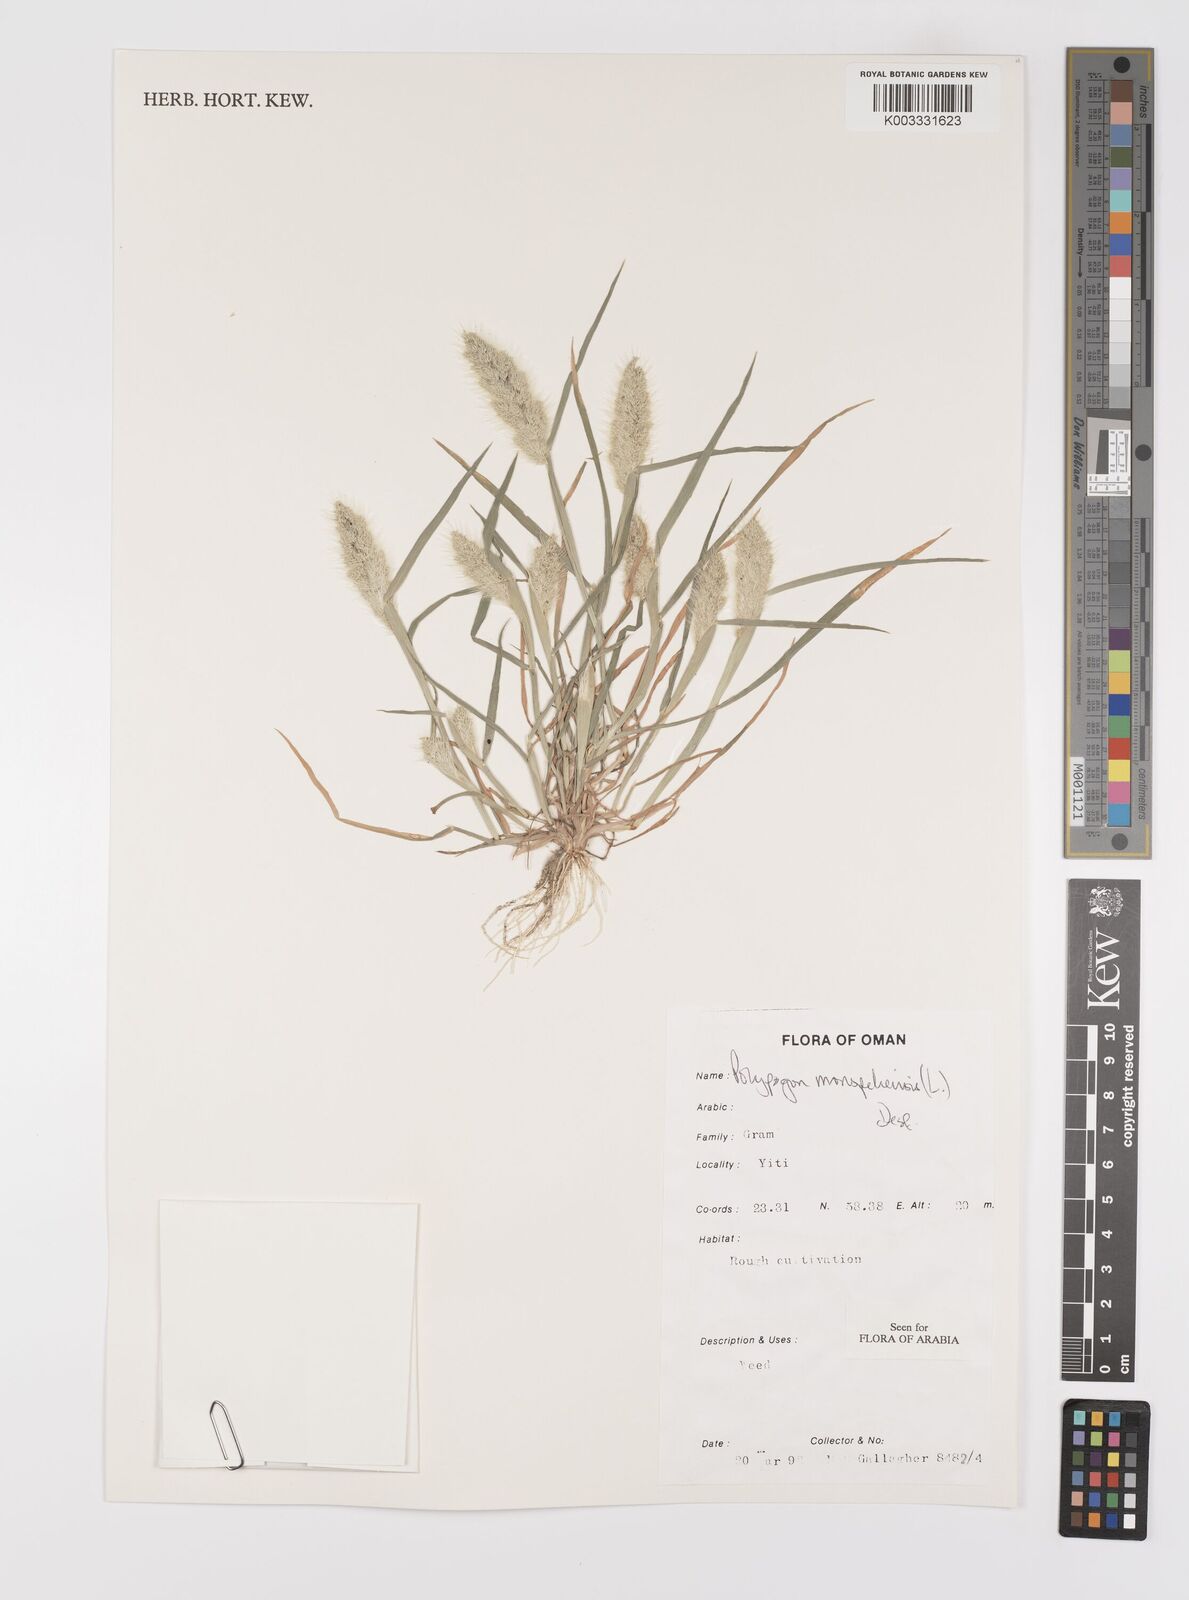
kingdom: Plantae
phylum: Tracheophyta
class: Liliopsida
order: Poales
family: Poaceae
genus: Polypogon
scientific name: Polypogon monspeliensis
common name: Annual rabbitsfoot grass
